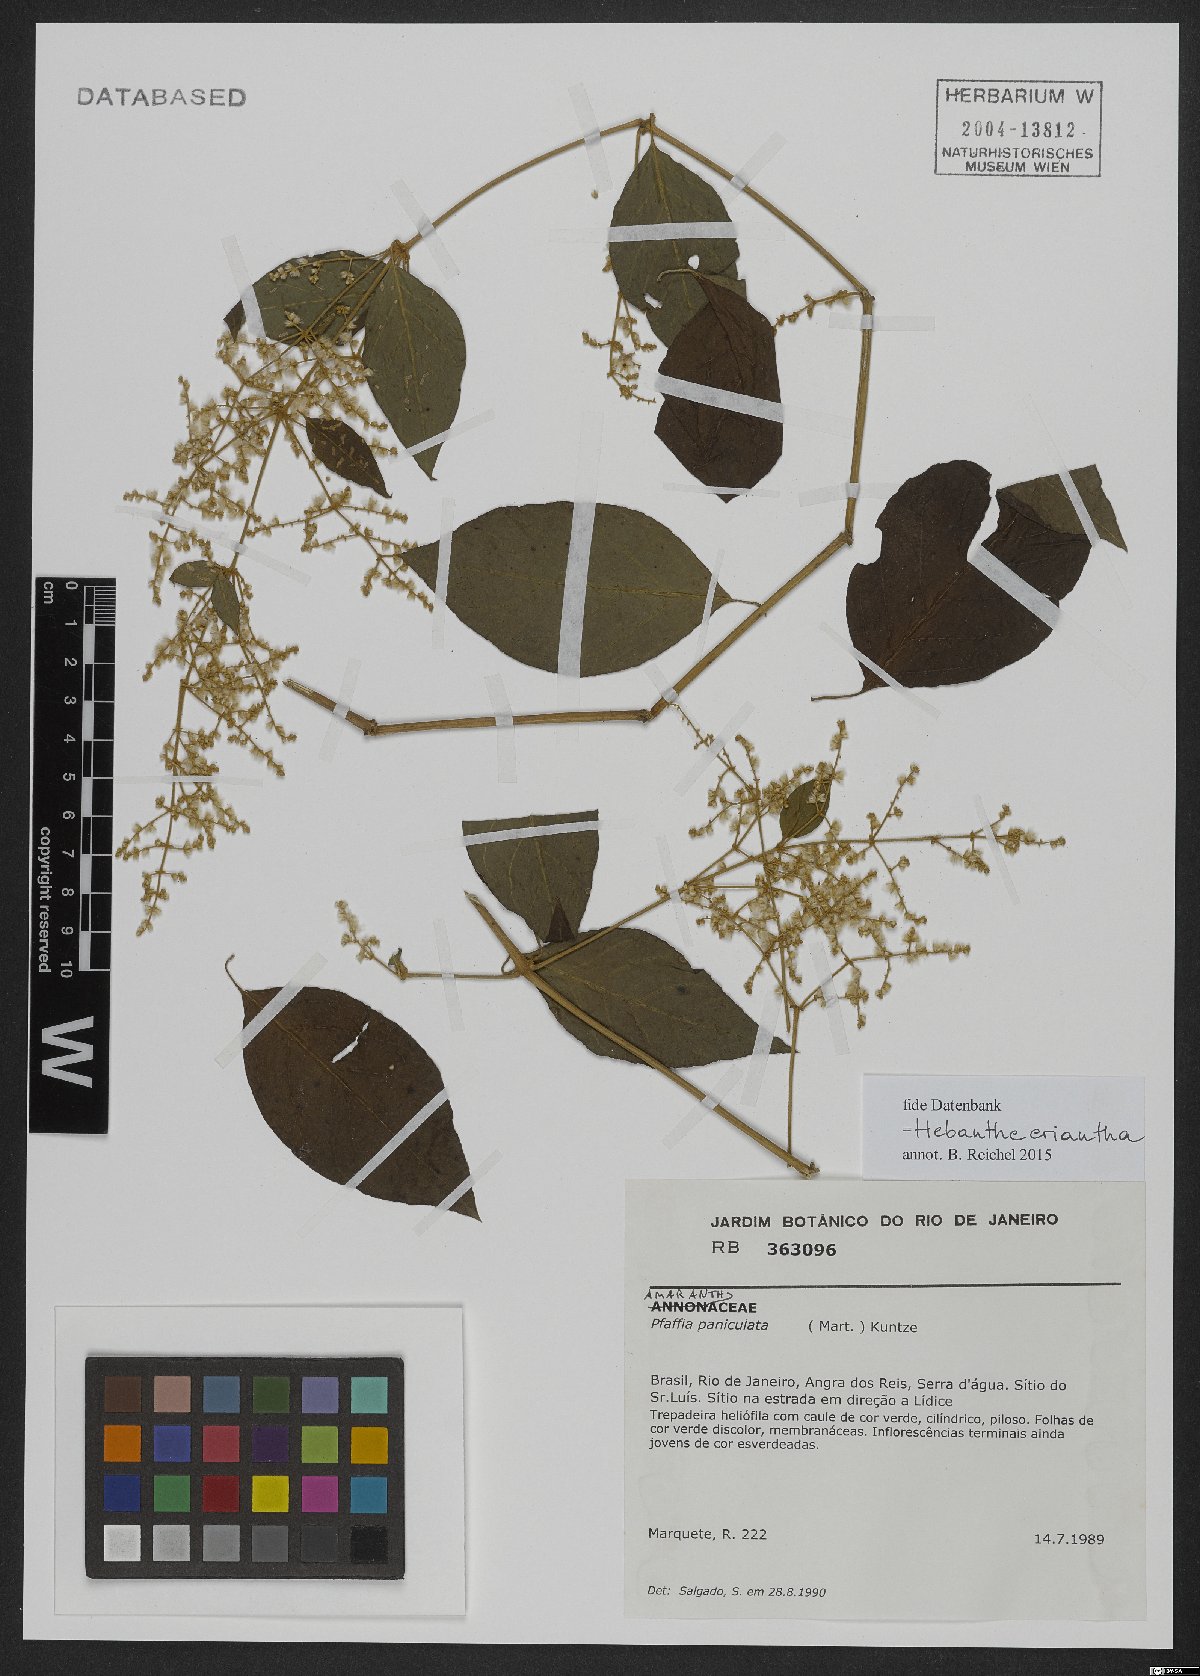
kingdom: Plantae
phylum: Tracheophyta
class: Magnoliopsida
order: Caryophyllales
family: Amaranthaceae
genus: Hebanthe
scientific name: Hebanthe erianthos
